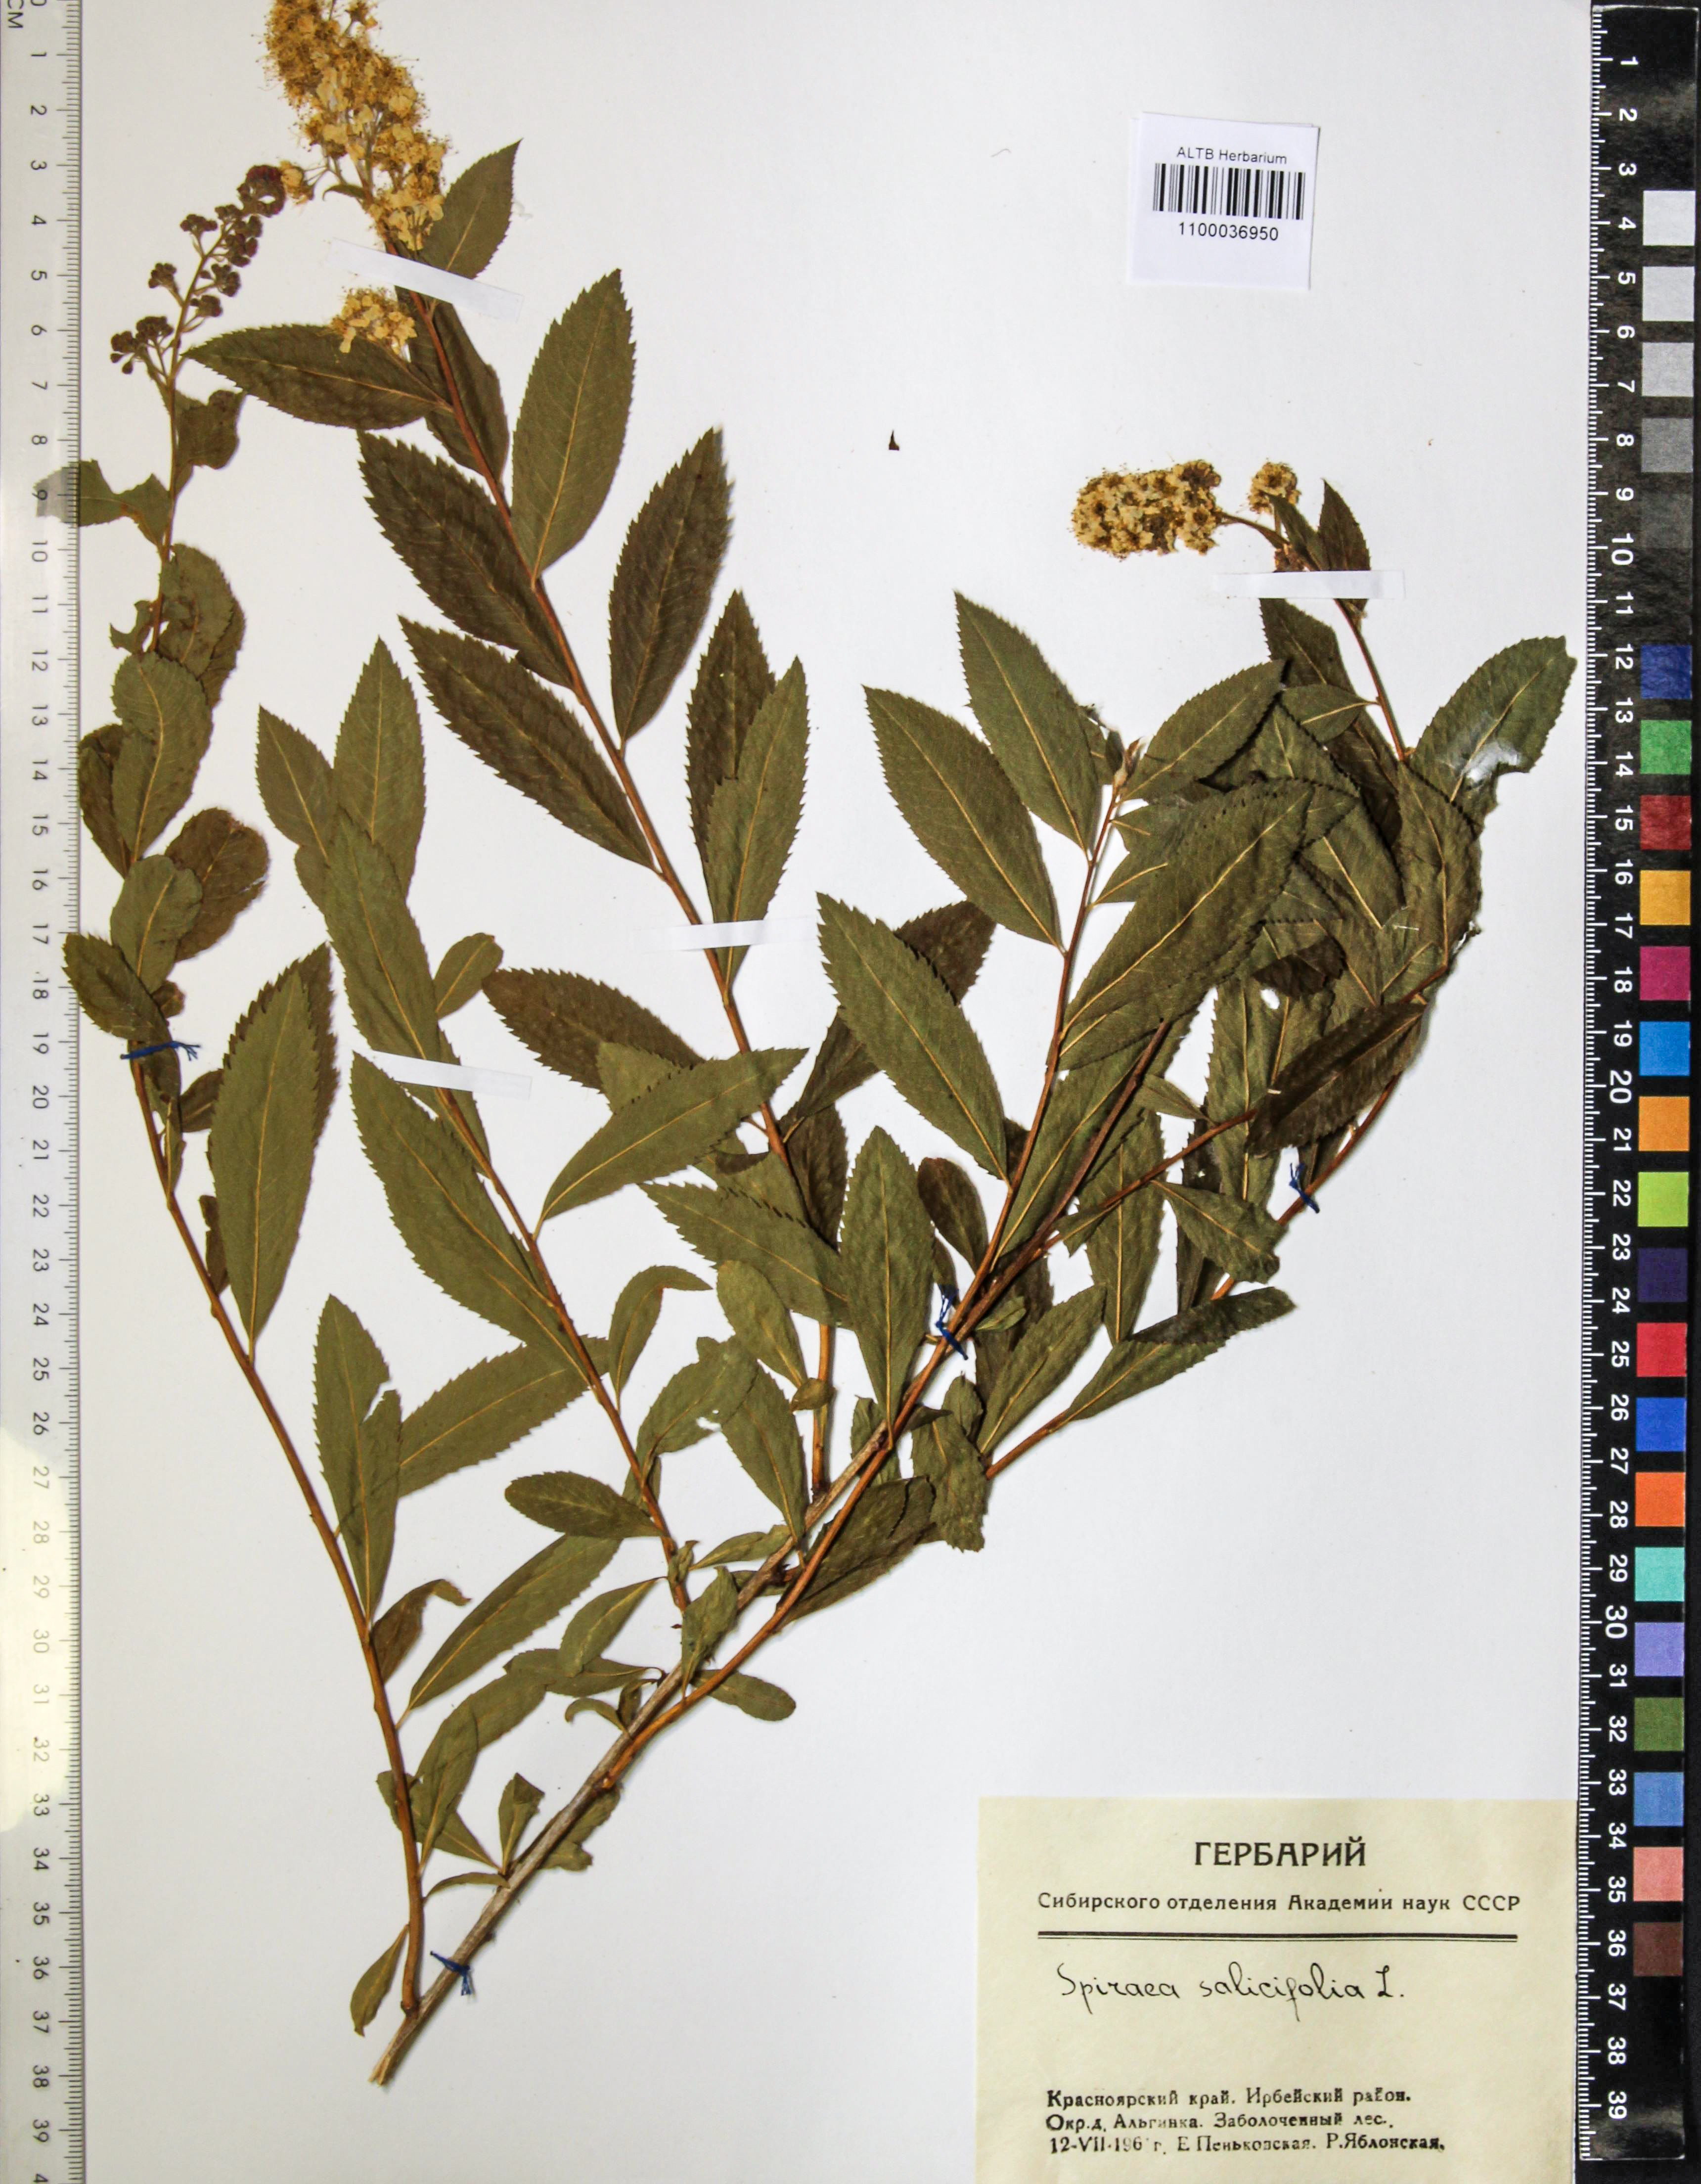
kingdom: Plantae
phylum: Tracheophyta
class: Magnoliopsida
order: Rosales
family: Rosaceae
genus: Spiraea
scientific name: Spiraea salicifolia
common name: Bridewort
